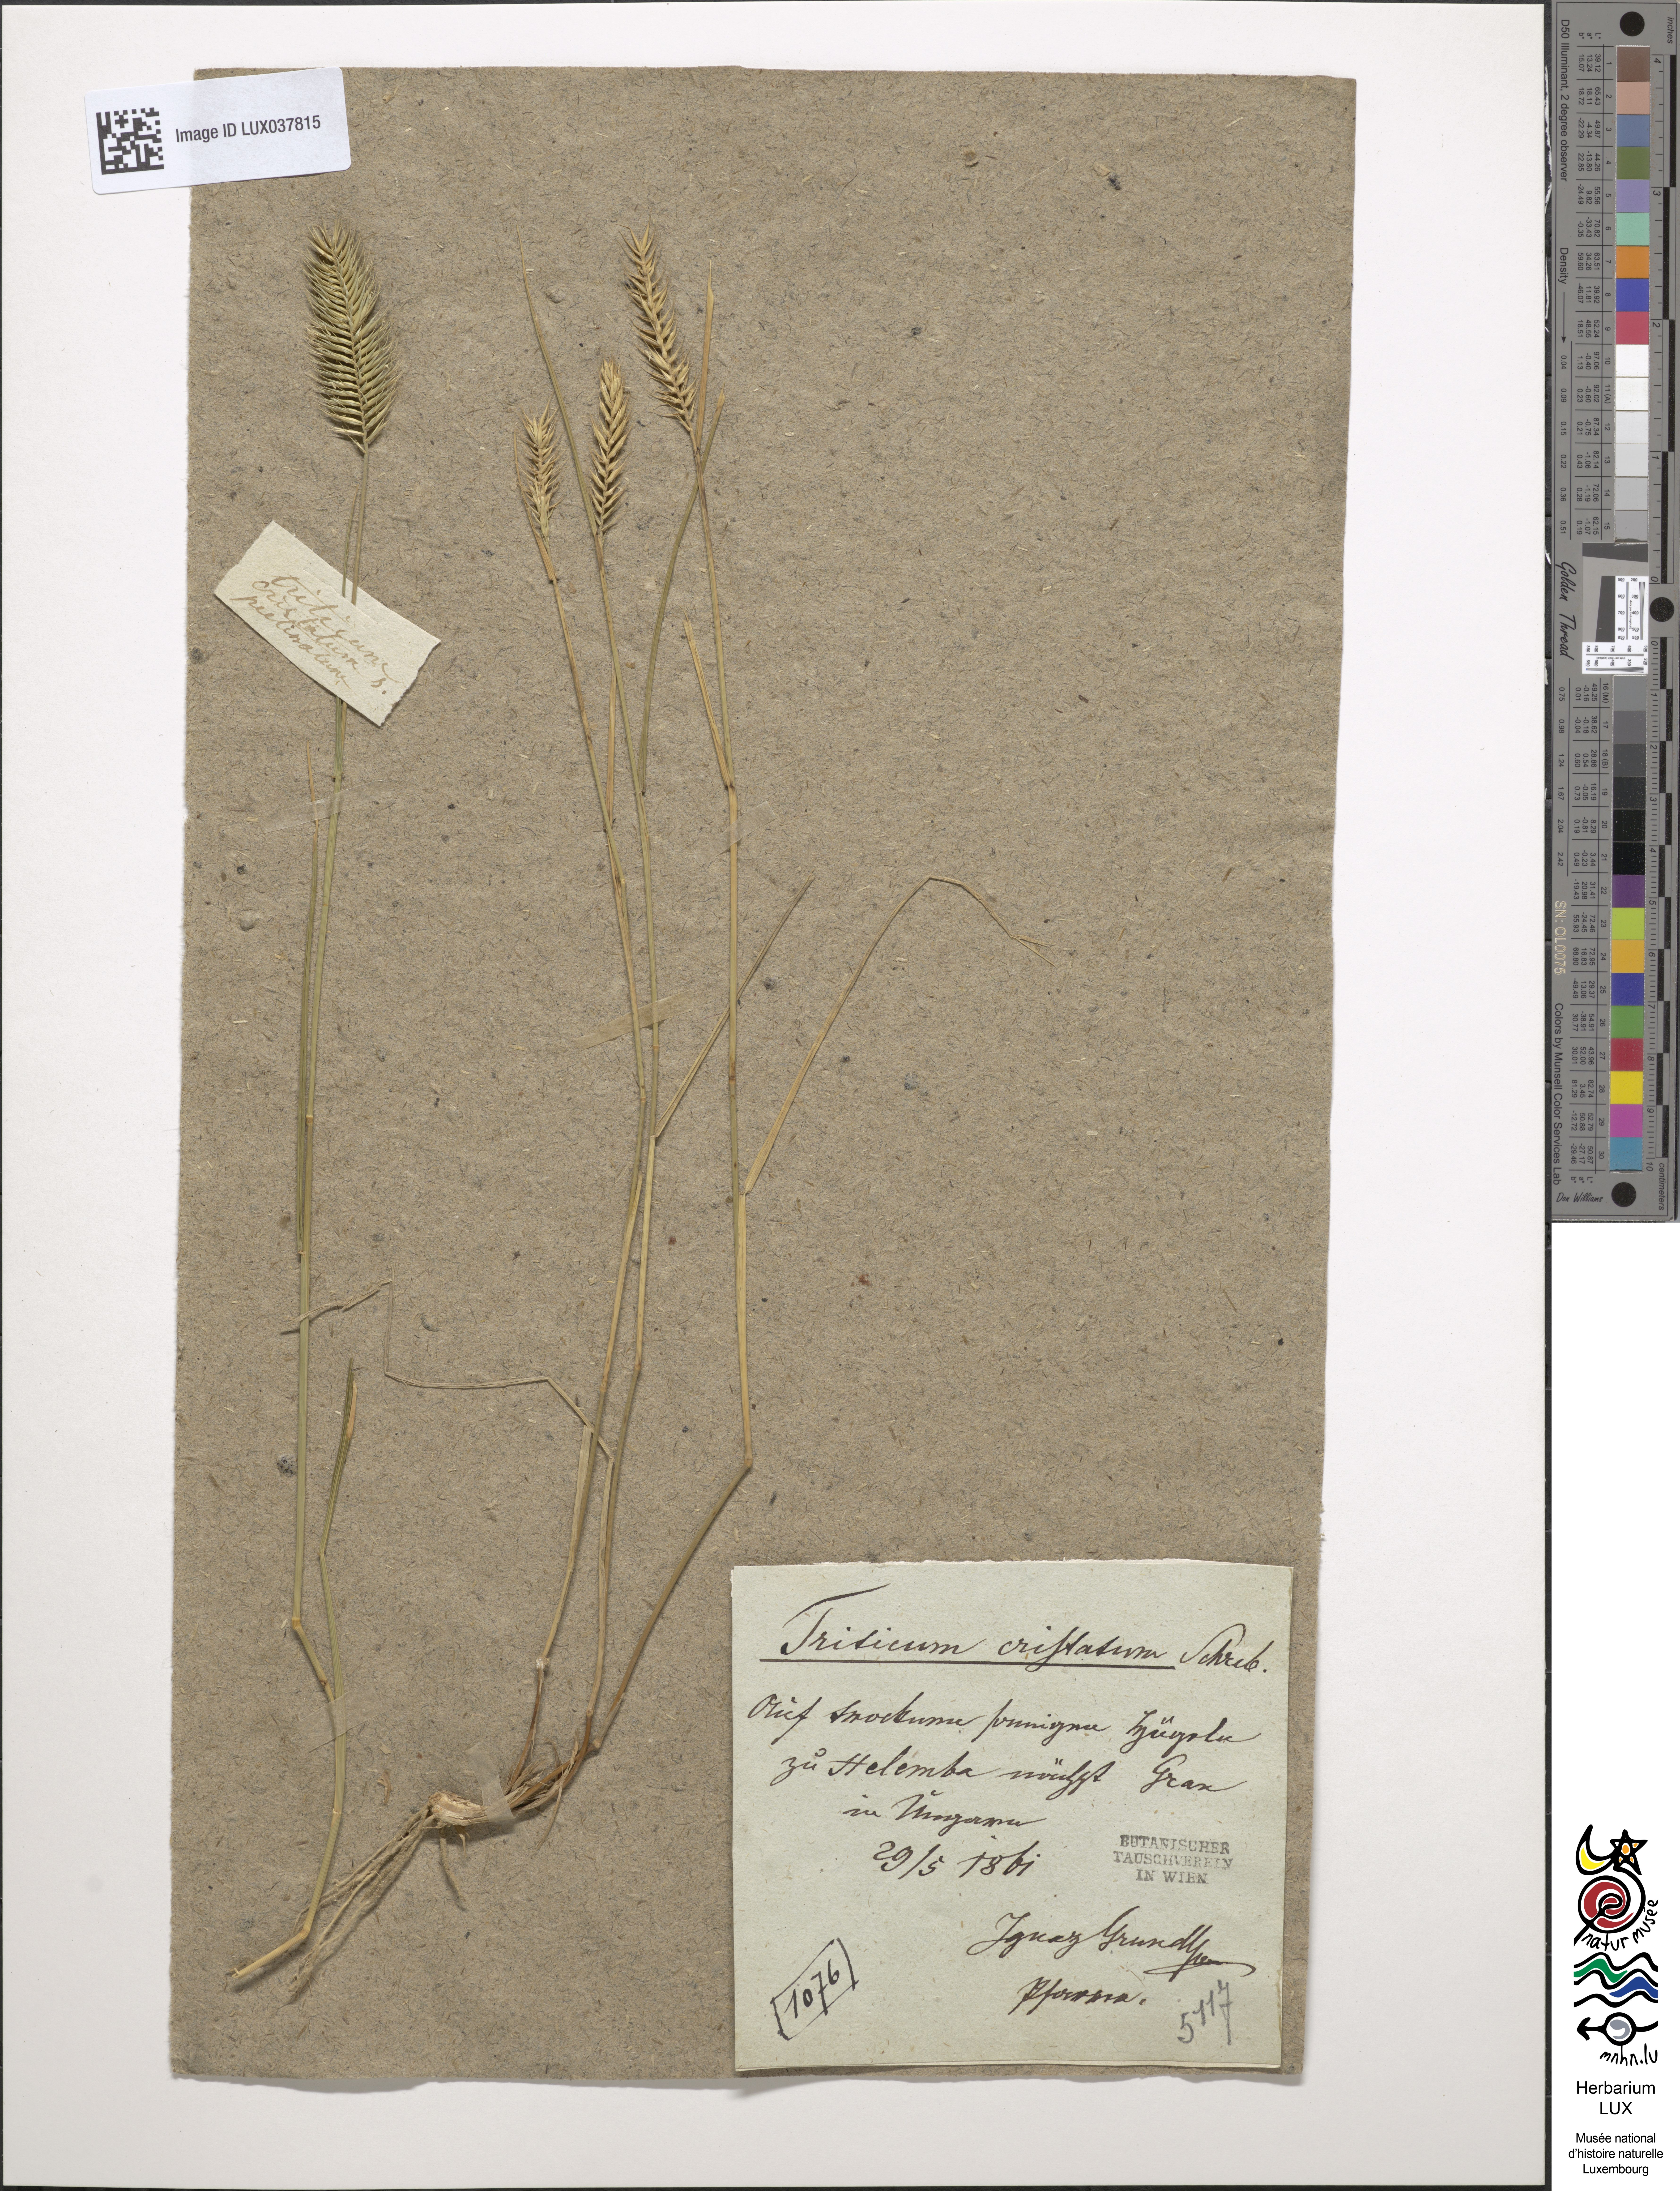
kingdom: Plantae
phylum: Tracheophyta
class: Liliopsida
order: Poales
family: Poaceae
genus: Agropyron
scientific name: Agropyron cristatum
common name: Crested wheatgrass
